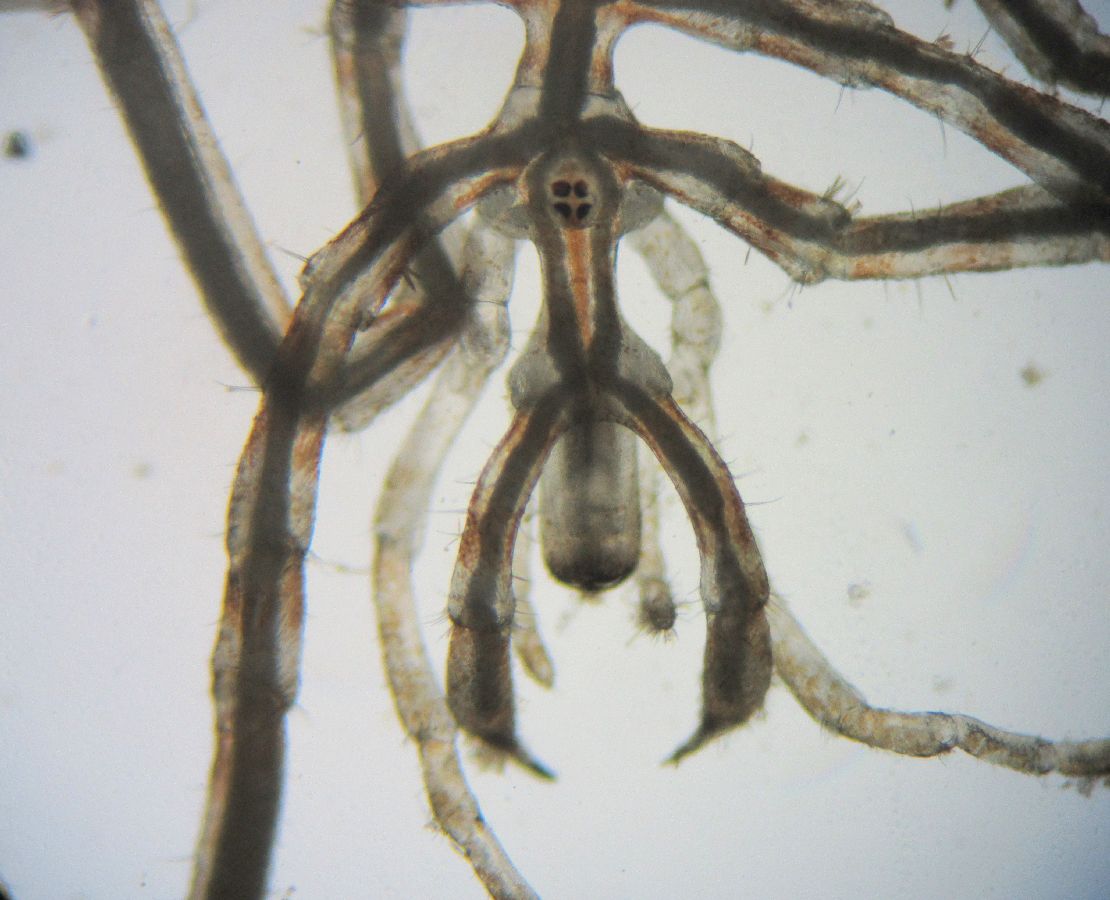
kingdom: Animalia
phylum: Arthropoda
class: Pycnogonida
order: Pantopoda
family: Nymphonidae
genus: Nymphon
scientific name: Nymphon microrhynchum
